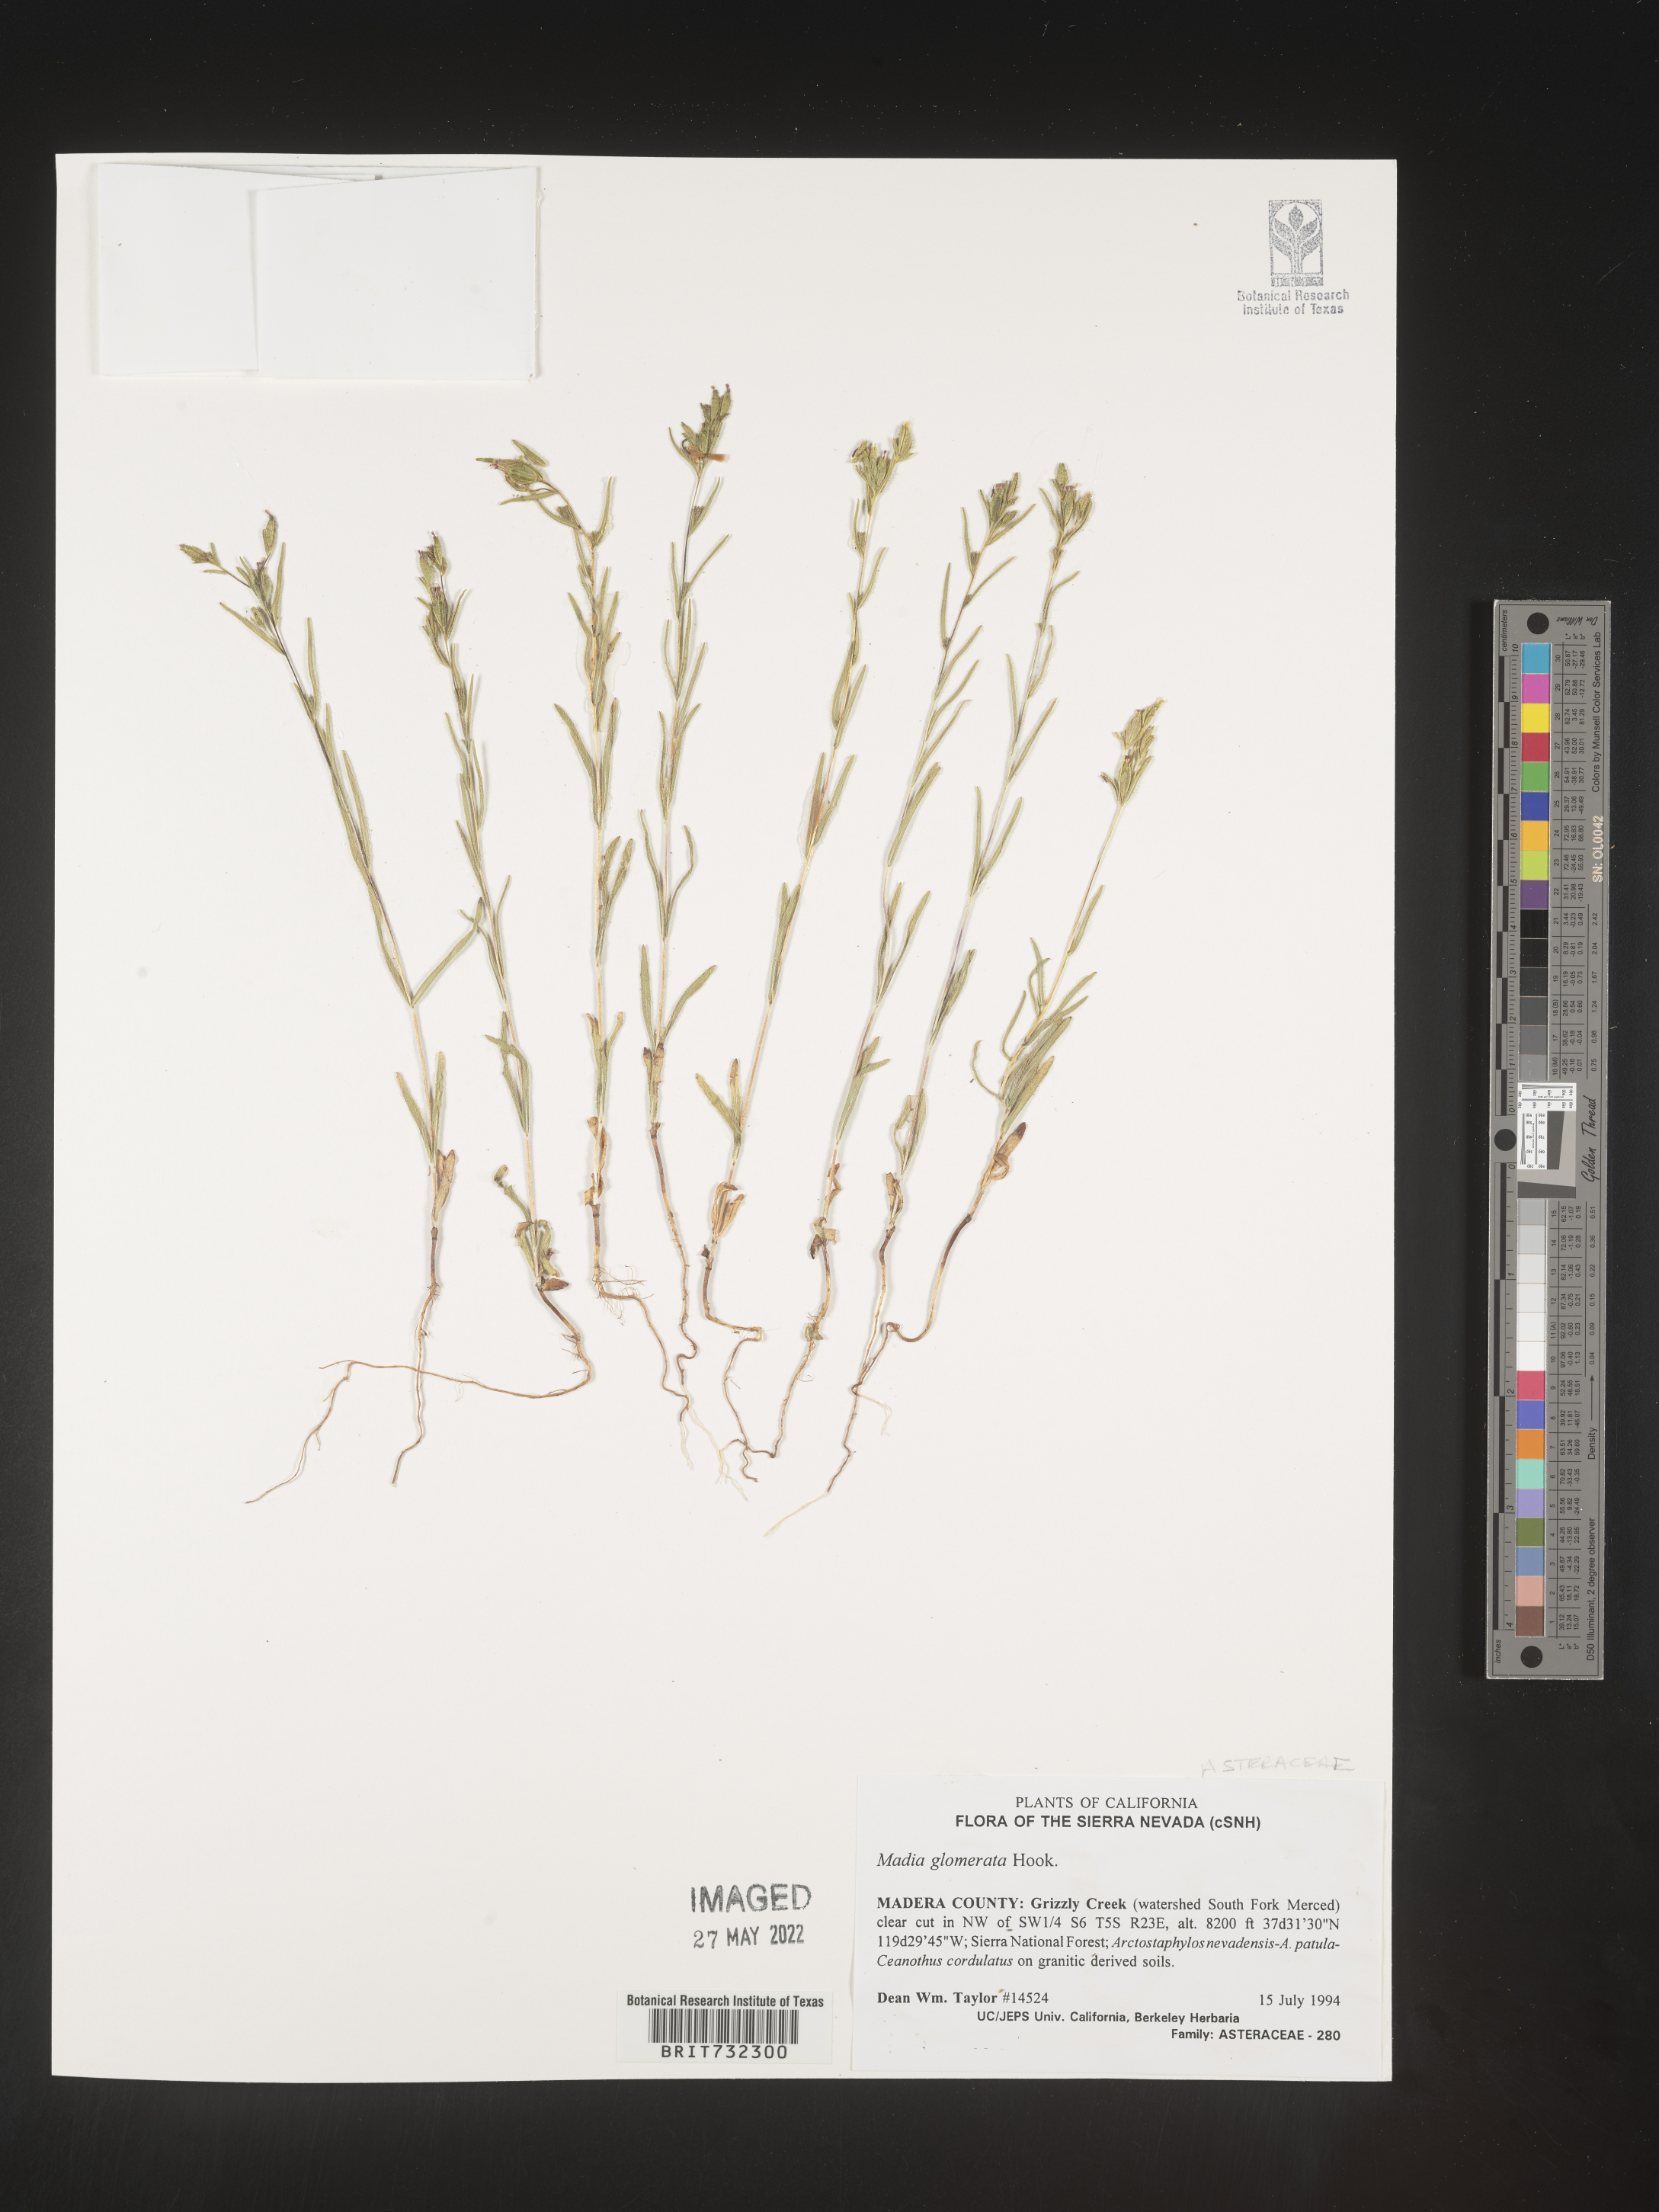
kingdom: Plantae
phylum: Tracheophyta
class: Magnoliopsida
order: Asterales
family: Asteraceae
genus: Madia
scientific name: Madia glomerata
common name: Mountain tarweed
